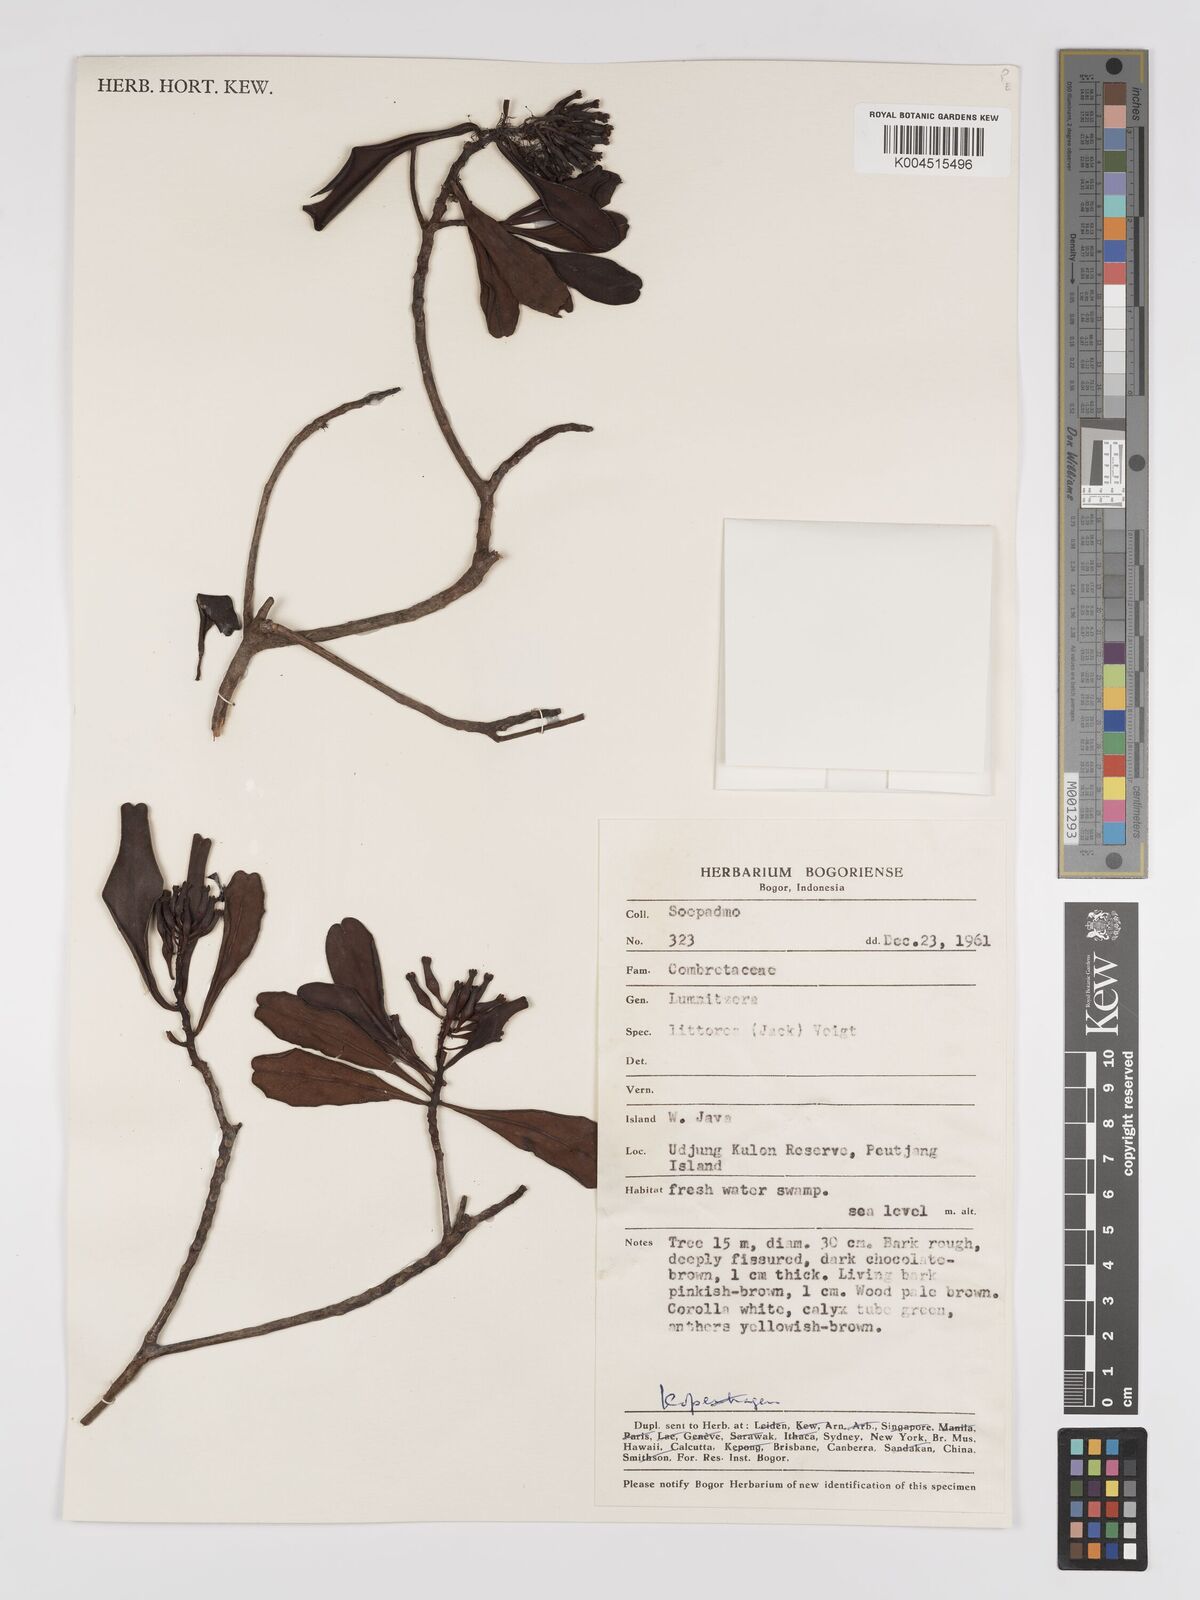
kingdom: Plantae
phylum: Tracheophyta
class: Magnoliopsida
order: Myrtales
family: Combretaceae
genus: Lumnitzera
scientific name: Lumnitzera littorea
